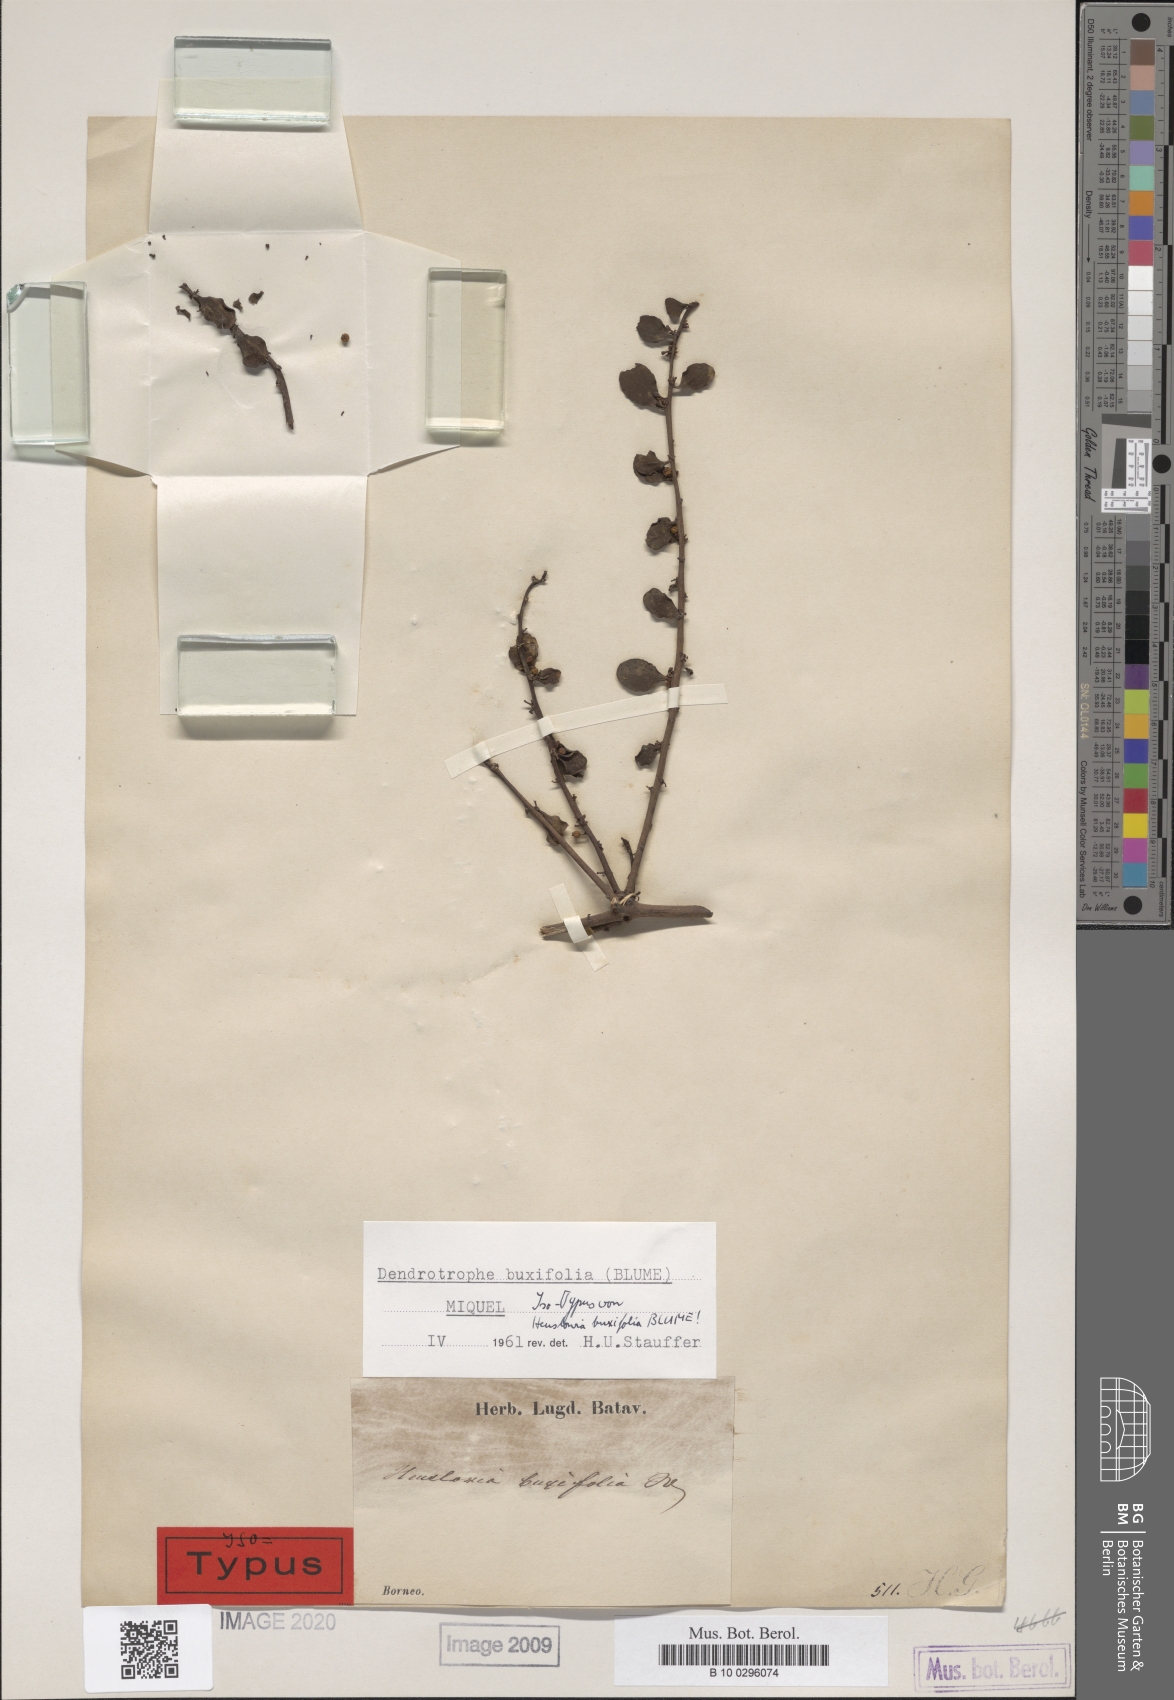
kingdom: Plantae
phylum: Tracheophyta
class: Magnoliopsida
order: Santalales
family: Amphorogynaceae
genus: Dendrotrophe
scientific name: Dendrotrophe buxifolia
